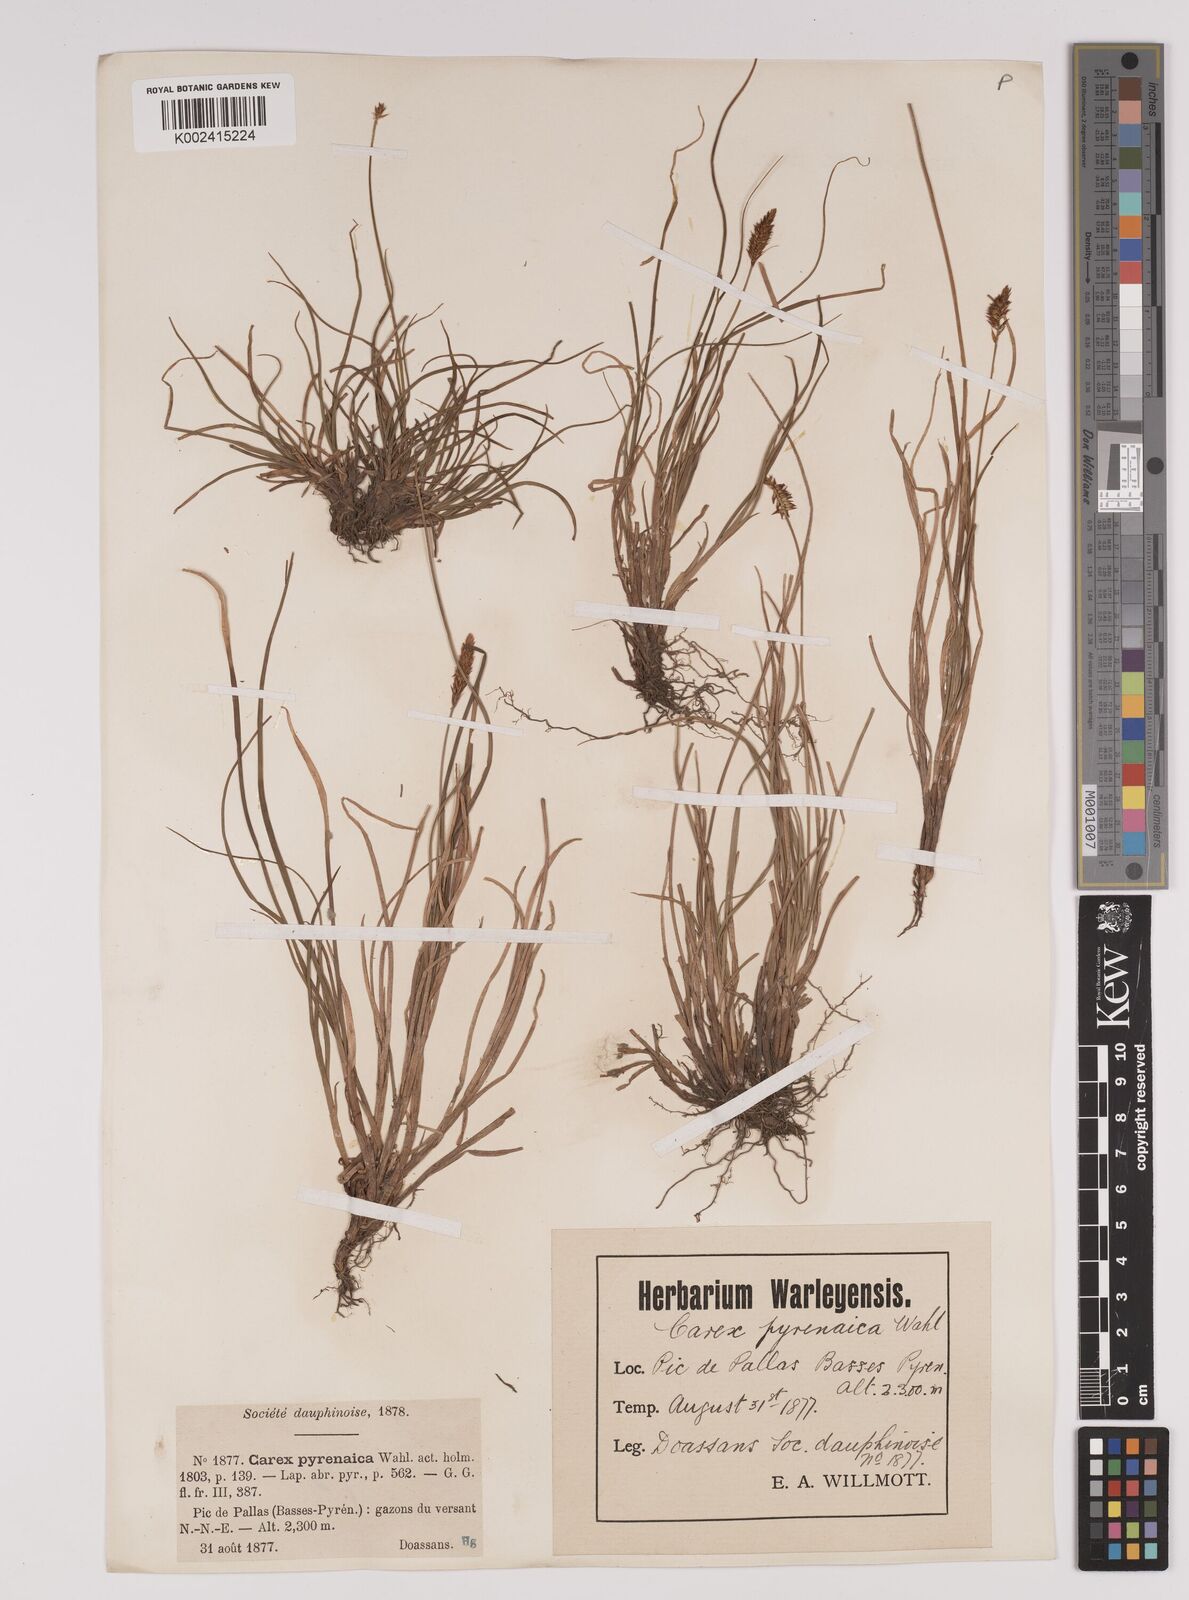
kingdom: Plantae
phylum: Tracheophyta
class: Liliopsida
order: Poales
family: Cyperaceae
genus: Carex
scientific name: Carex pyrenaica
